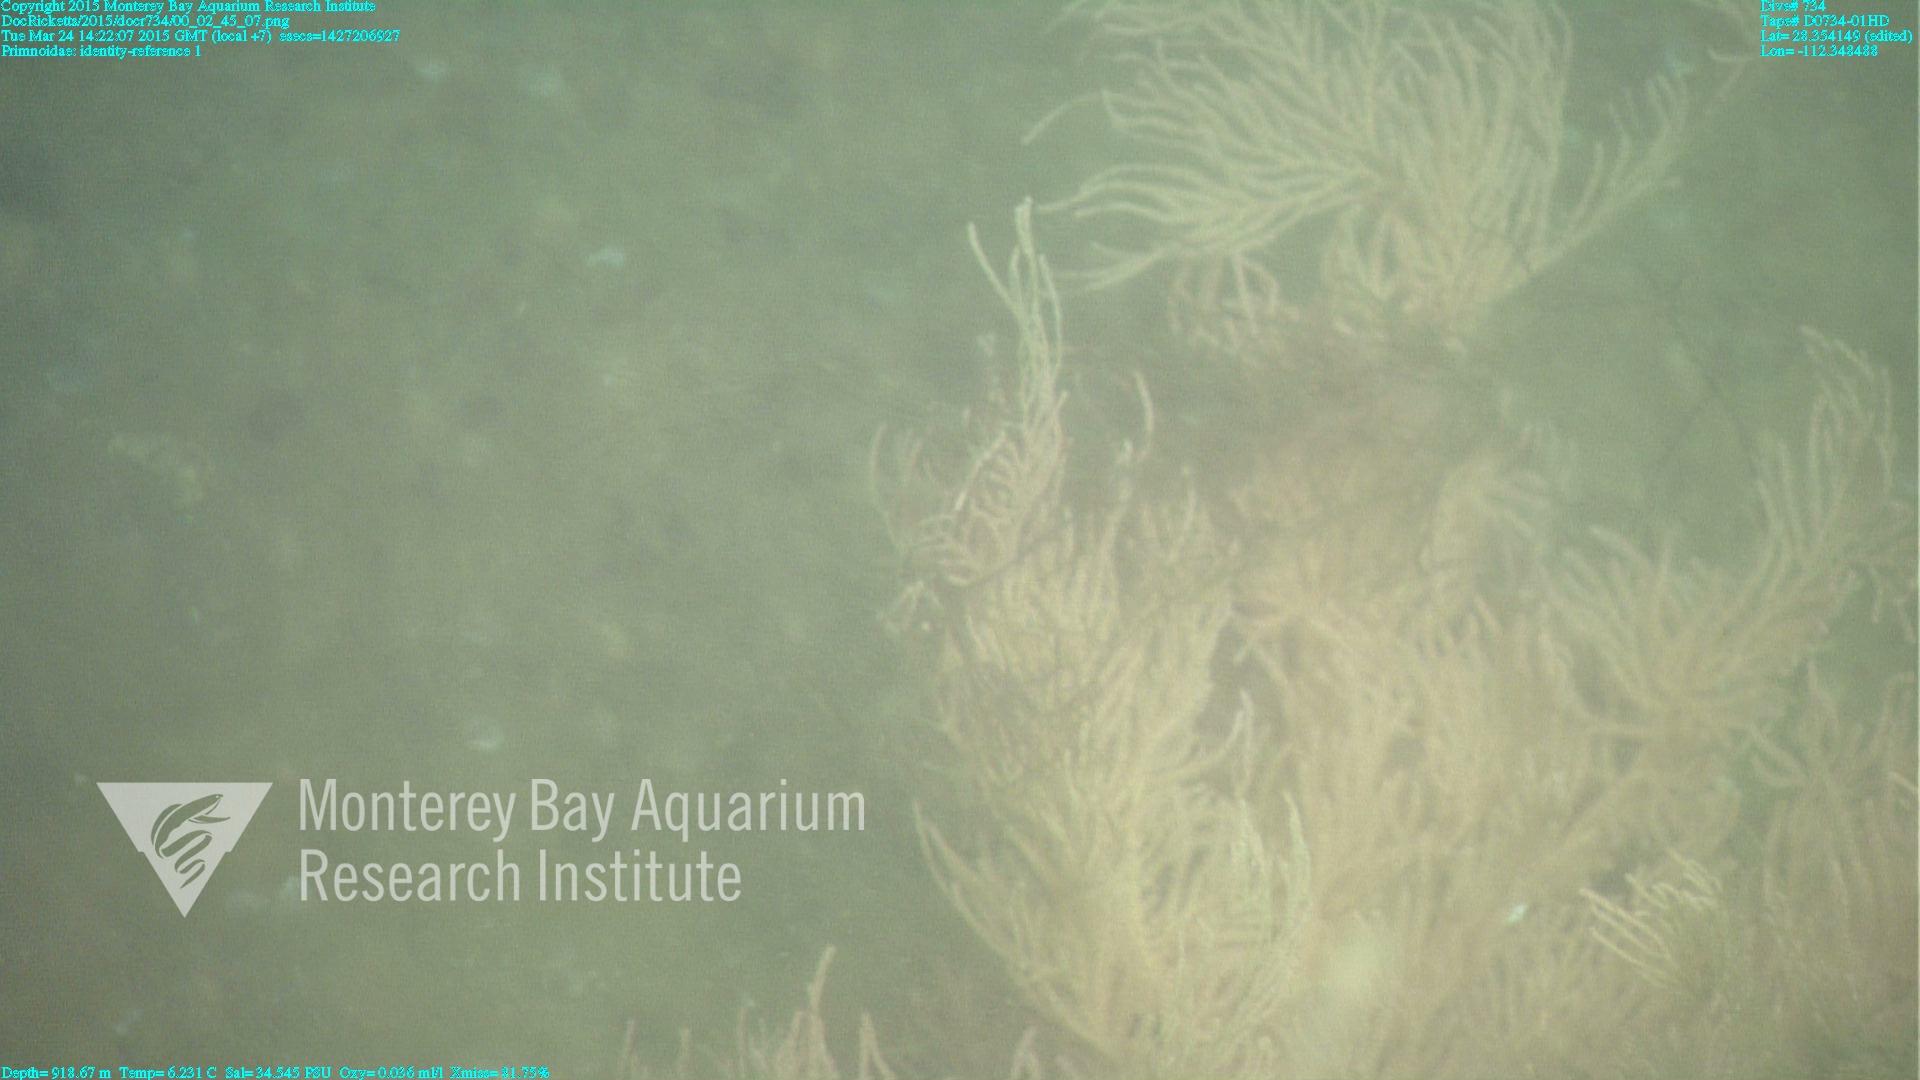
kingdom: Animalia
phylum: Cnidaria
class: Anthozoa
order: Scleralcyonacea
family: Primnoidae
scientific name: Primnoidae
